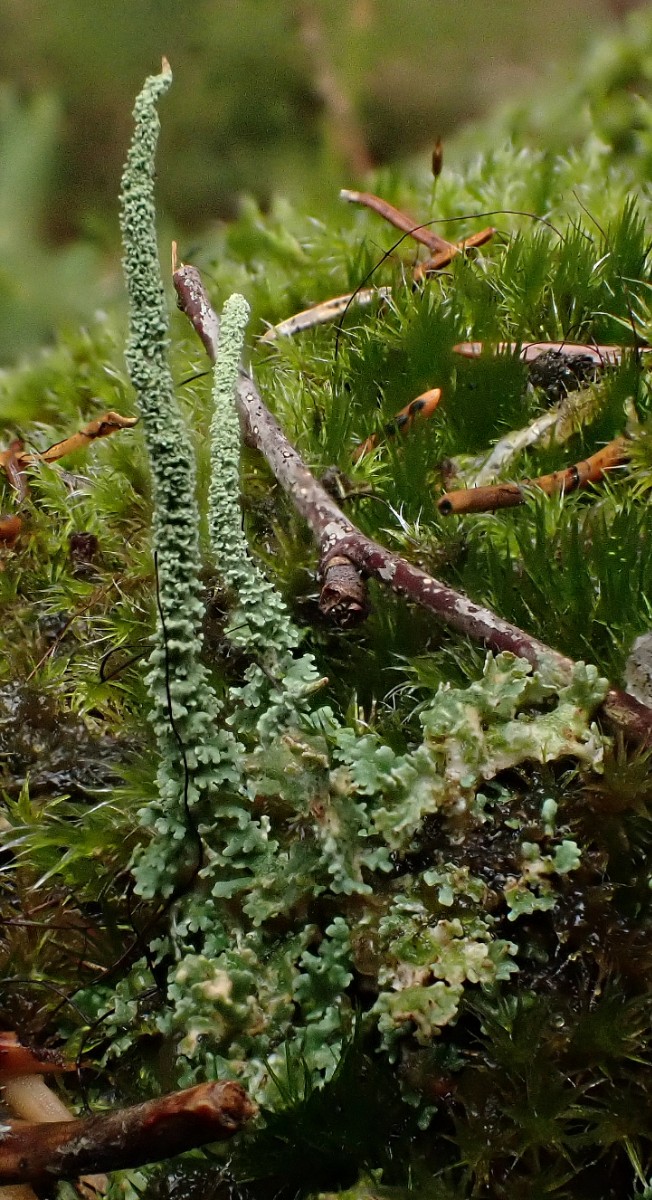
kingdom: Fungi
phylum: Ascomycota
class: Lecanoromycetes
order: Lecanorales
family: Cladoniaceae
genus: Cladonia
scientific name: Cladonia glauca
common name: grågrøn bægerlav
